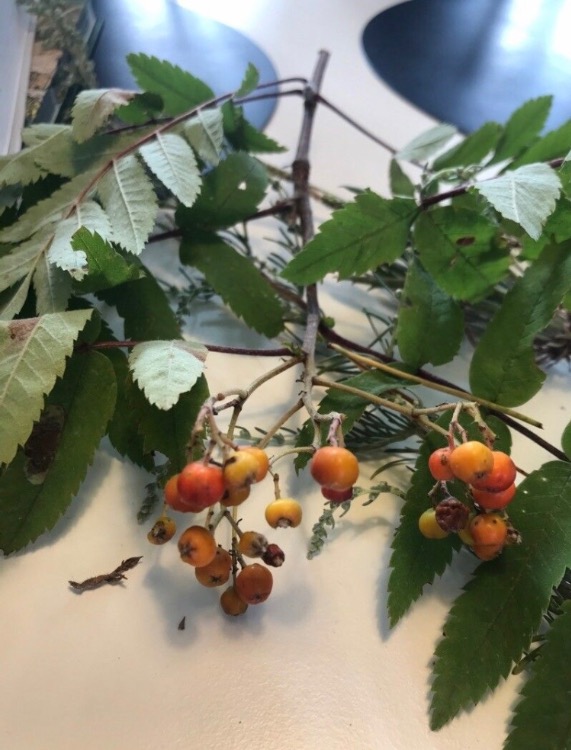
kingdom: Plantae
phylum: Tracheophyta
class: Magnoliopsida
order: Rosales
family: Rosaceae
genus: Sorbus
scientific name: Sorbus aucuparia
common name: Almindelig røn
